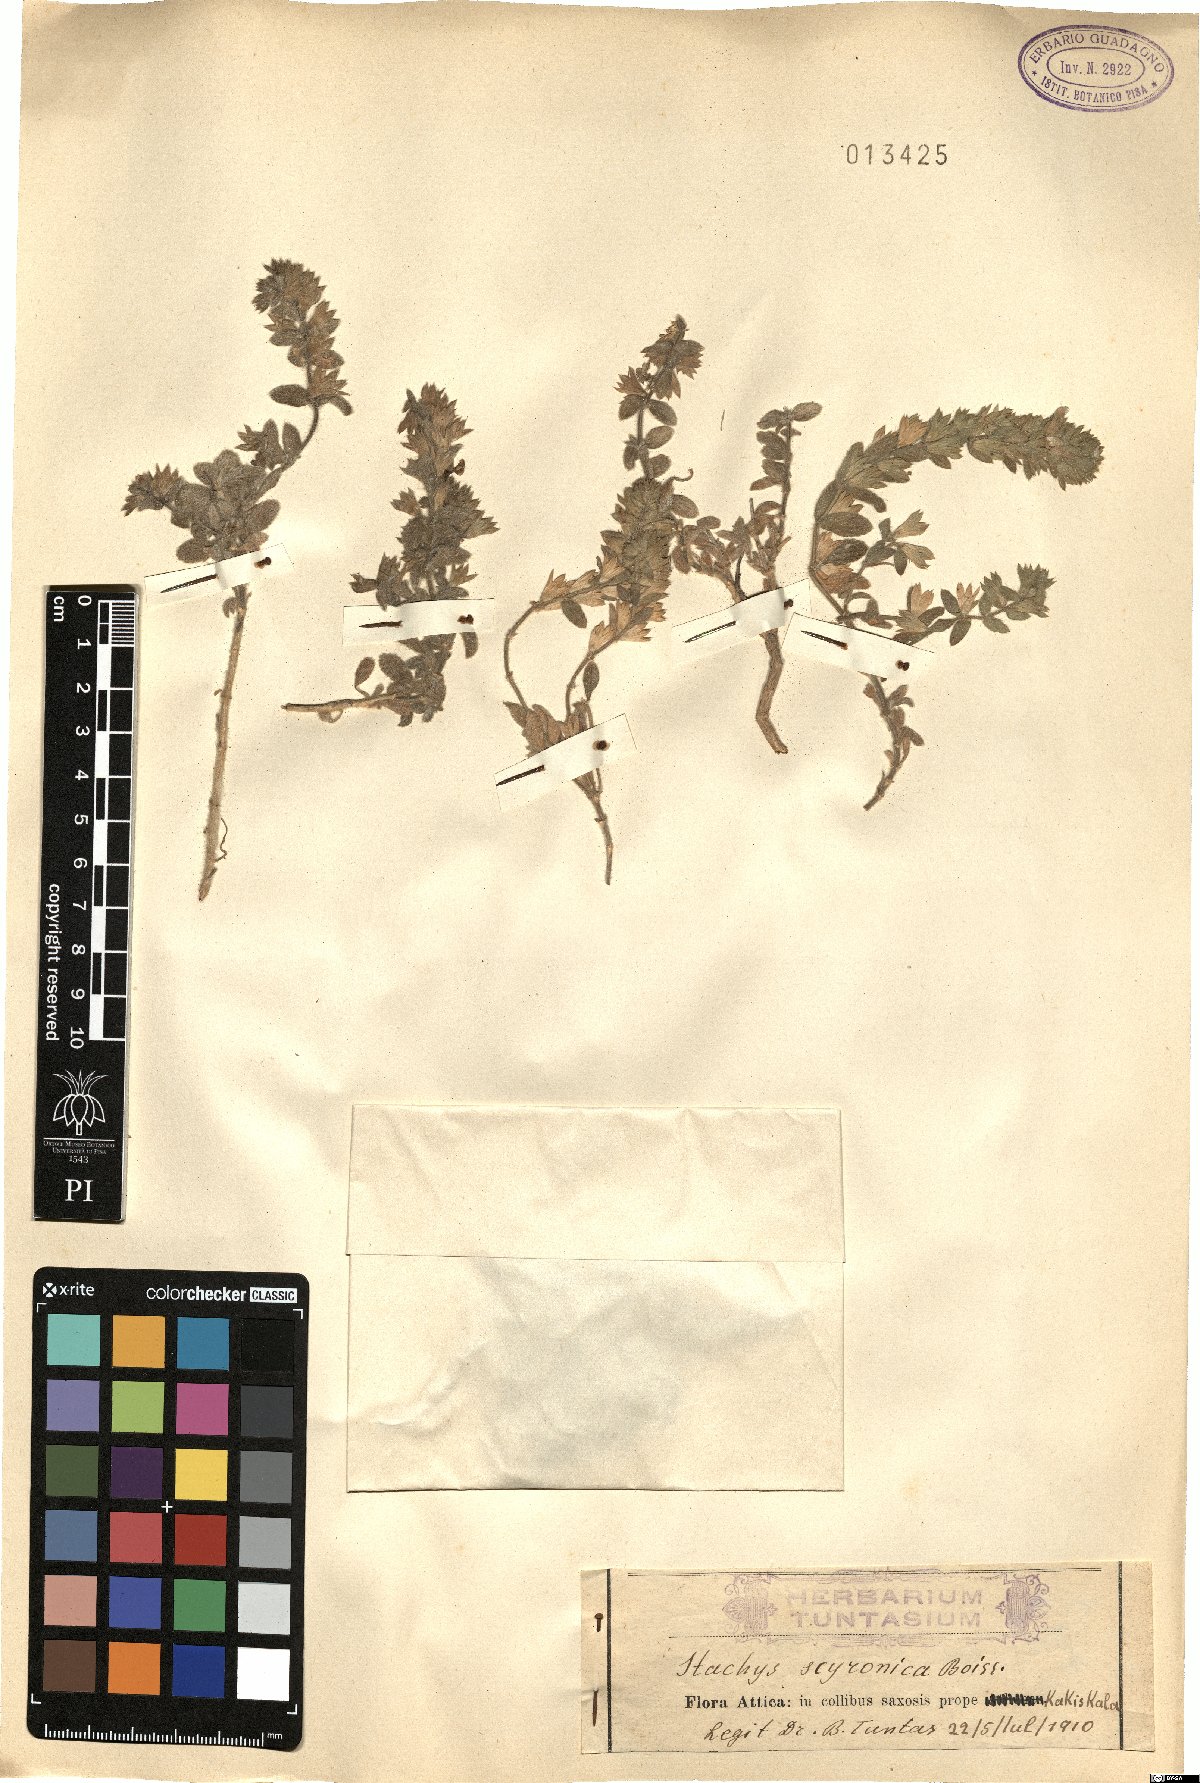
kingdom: Plantae
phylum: Tracheophyta
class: Magnoliopsida
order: Lamiales
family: Lamiaceae
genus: Stachys
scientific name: Stachys swainsonii
